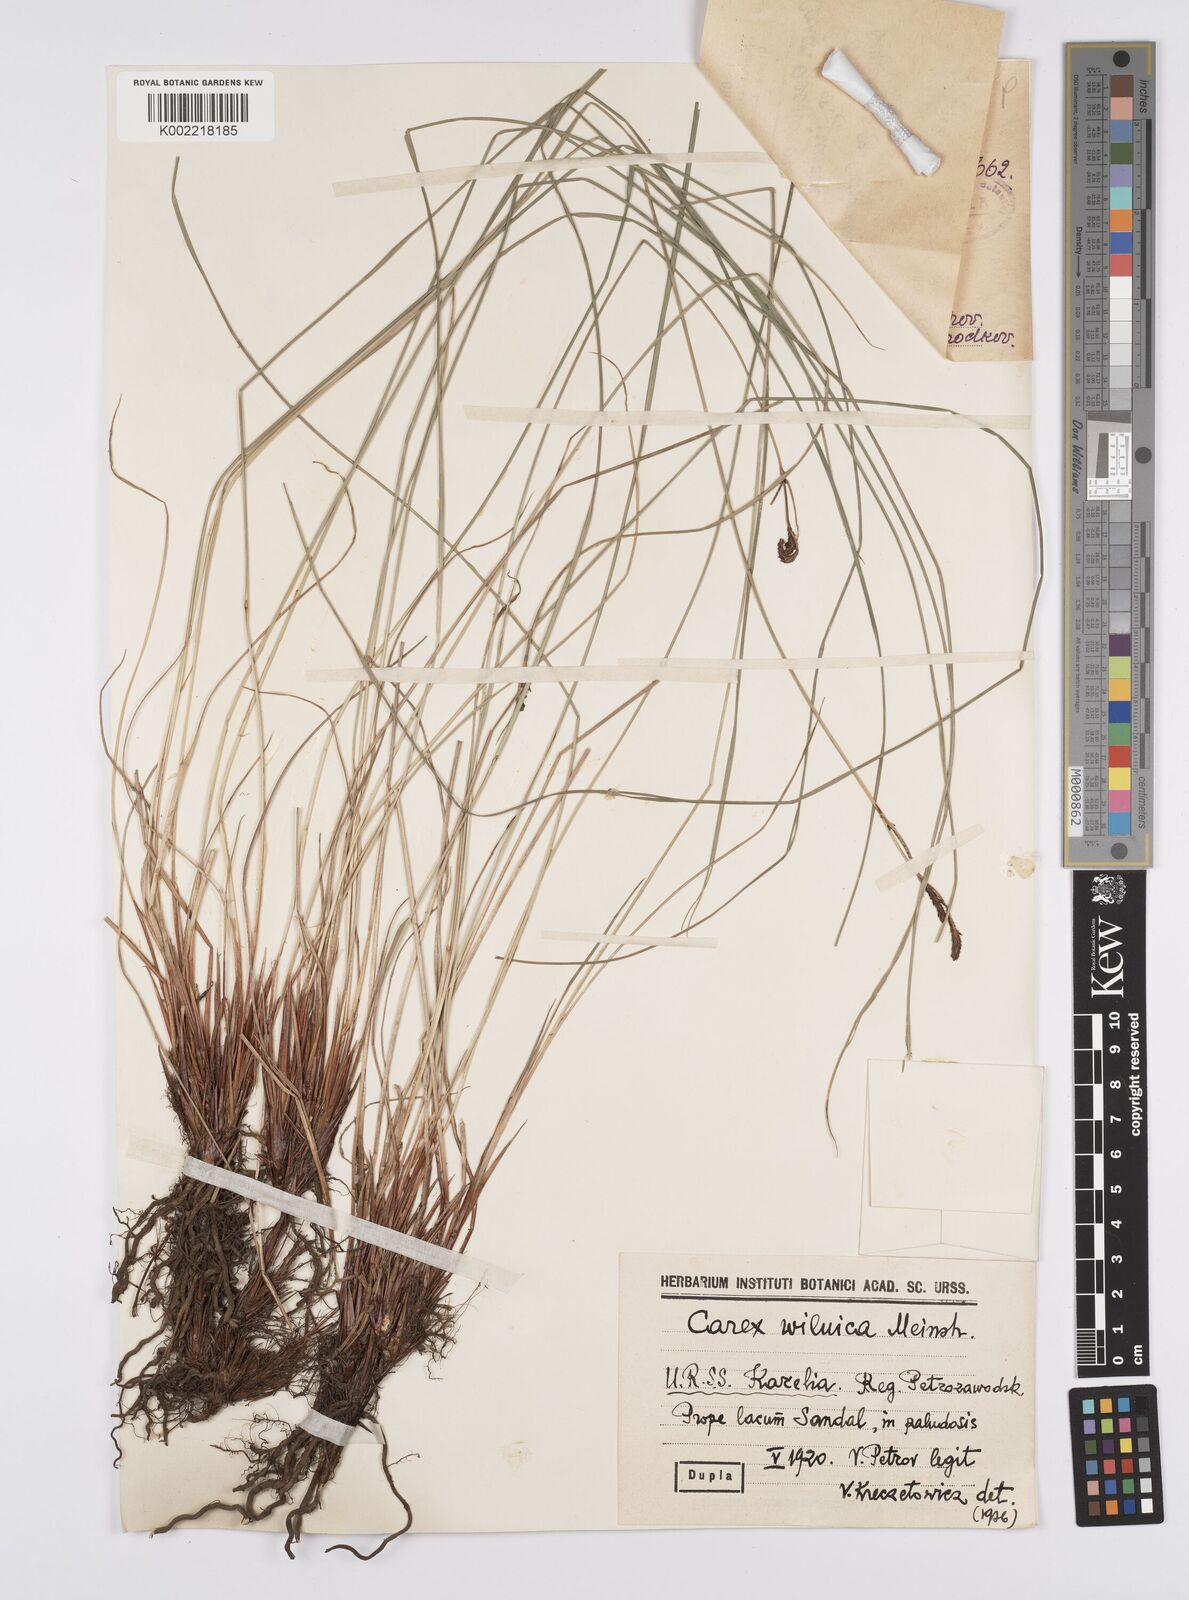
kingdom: Plantae
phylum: Tracheophyta
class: Liliopsida
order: Poales
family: Cyperaceae
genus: Carex
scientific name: Carex nigra
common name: Common sedge
